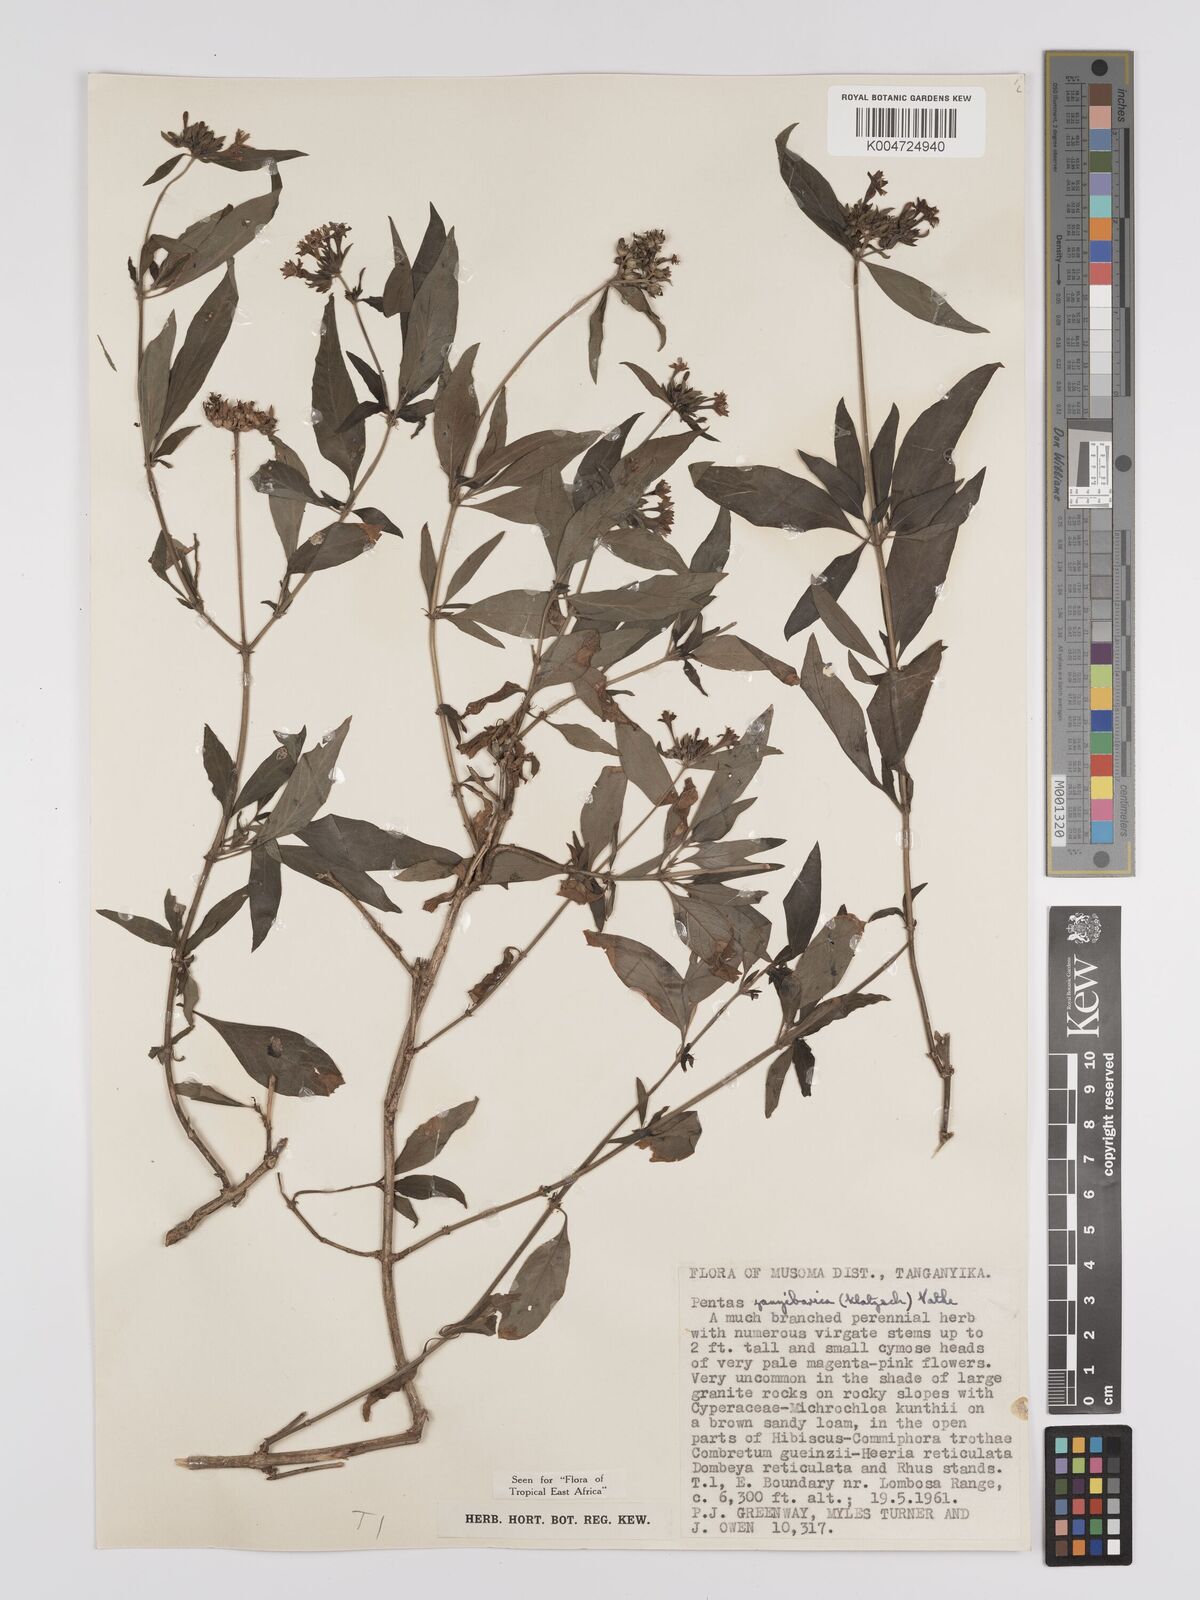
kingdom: Plantae
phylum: Tracheophyta
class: Magnoliopsida
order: Gentianales
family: Rubiaceae
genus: Pentas
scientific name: Pentas zanzibarica
